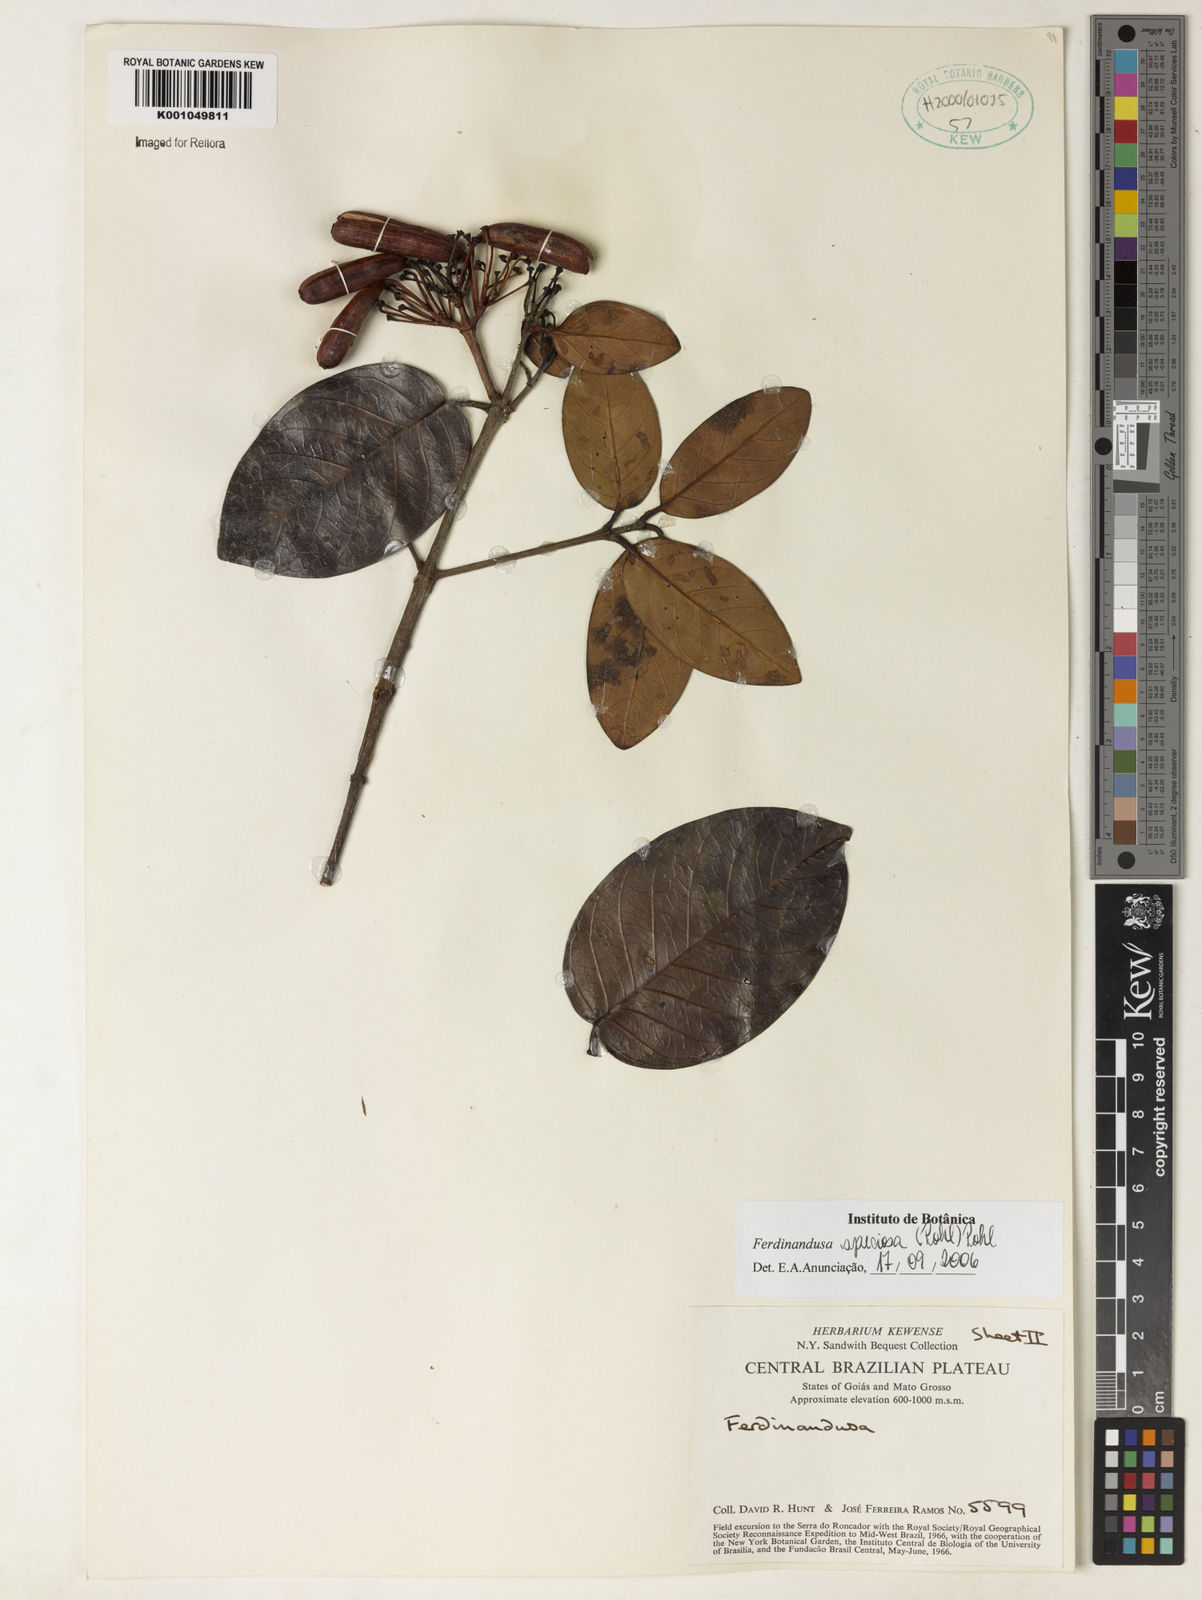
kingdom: Plantae
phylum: Tracheophyta
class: Magnoliopsida
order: Gentianales
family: Rubiaceae
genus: Ferdinandusa
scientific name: Ferdinandusa speciosa
